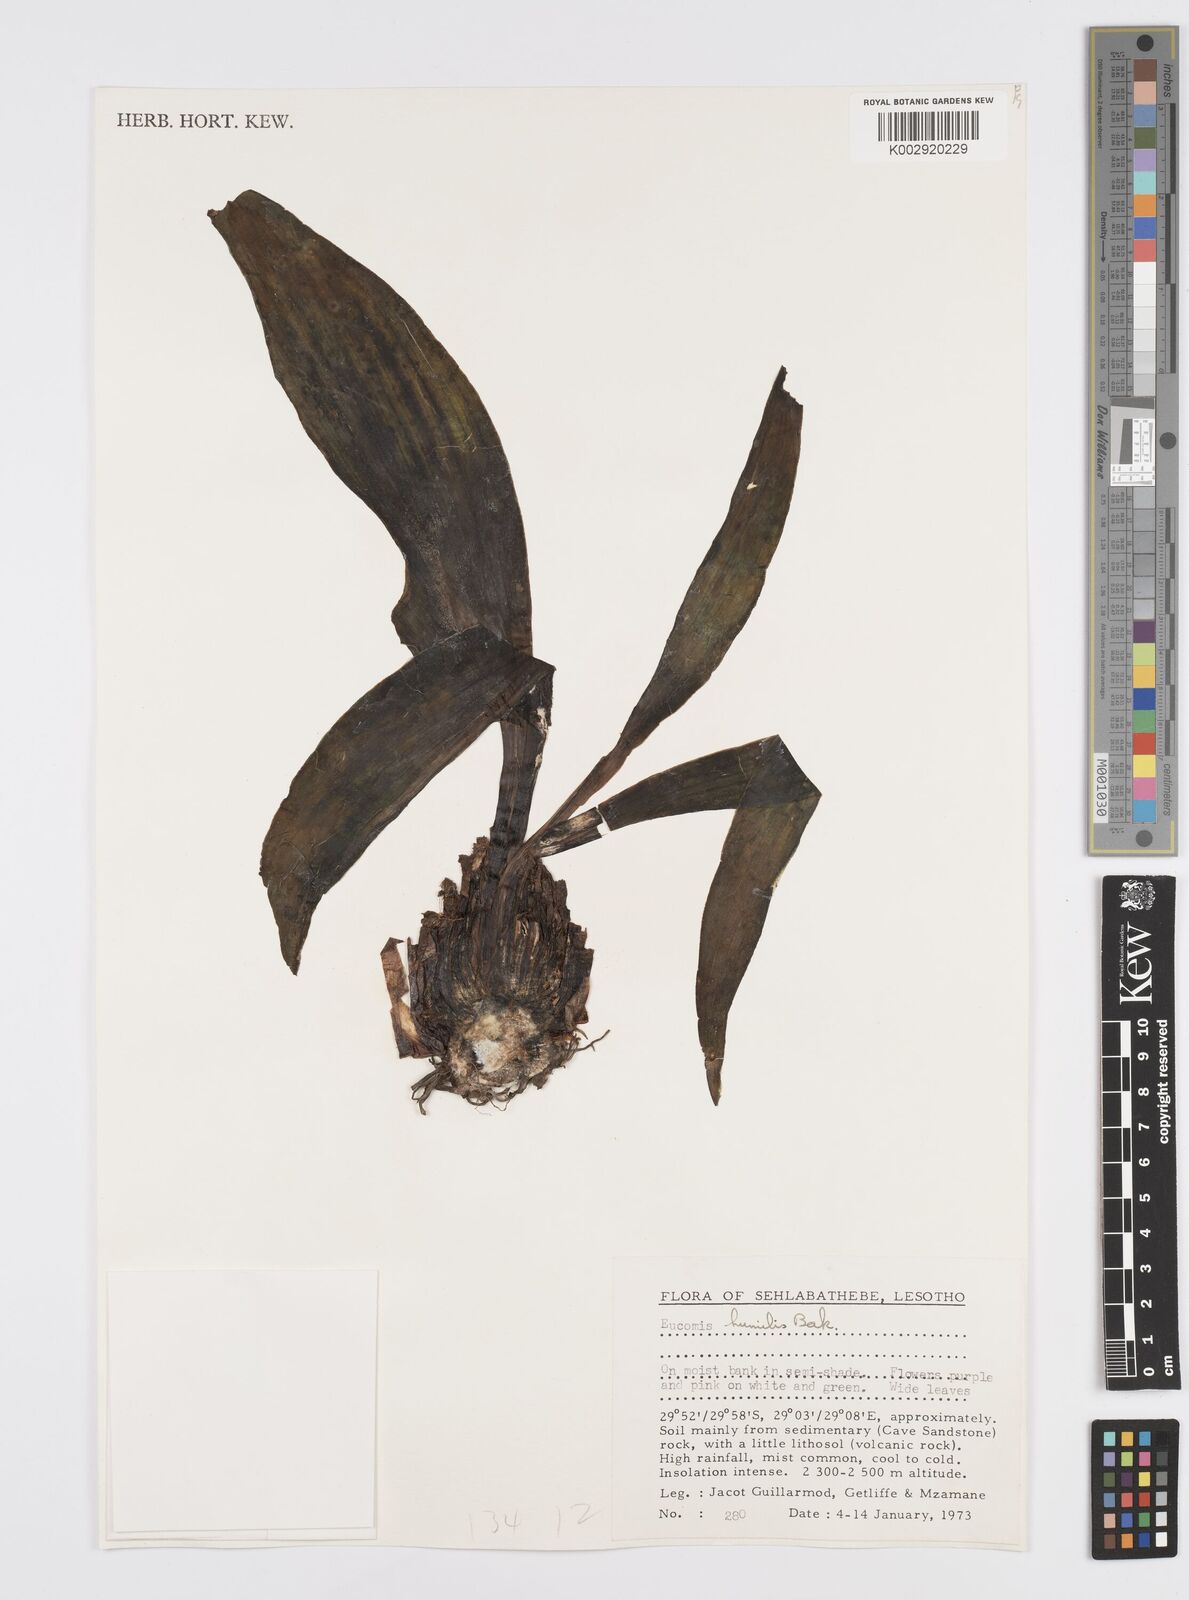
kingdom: Plantae
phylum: Tracheophyta
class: Liliopsida
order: Asparagales
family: Asparagaceae
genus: Eucomis
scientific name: Eucomis
